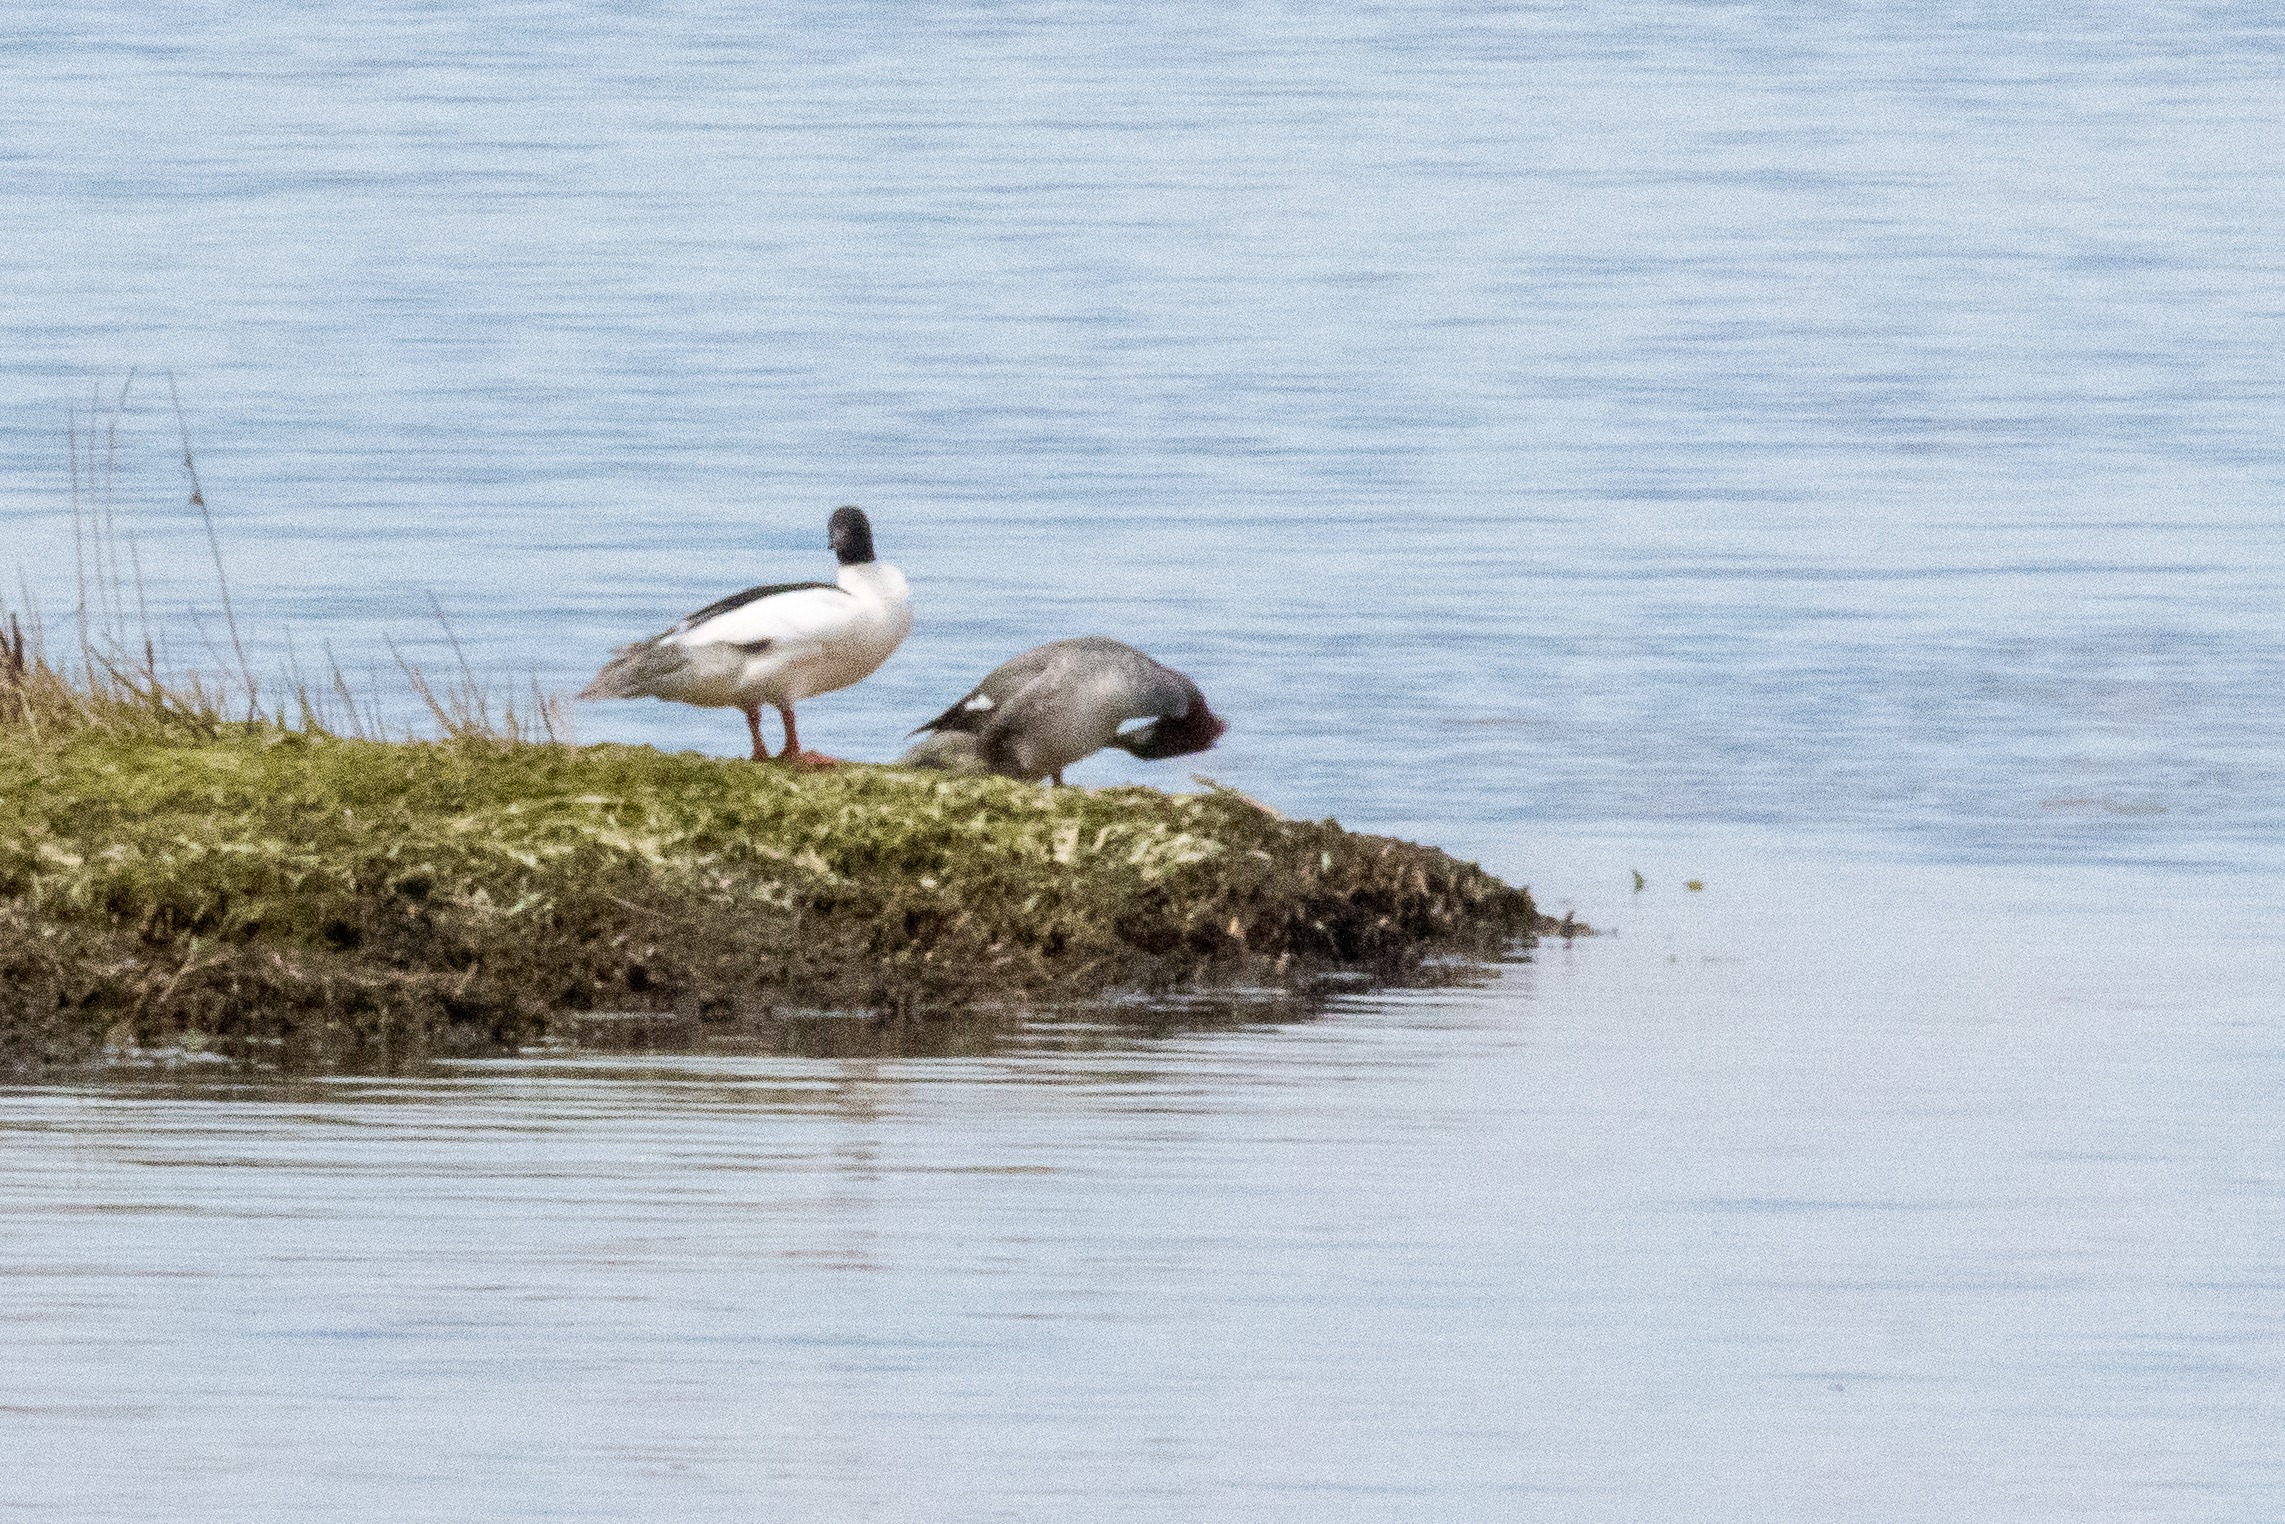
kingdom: Animalia
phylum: Chordata
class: Aves
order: Anseriformes
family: Anatidae
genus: Mergus
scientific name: Mergus merganser
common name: Stor skallesluger
